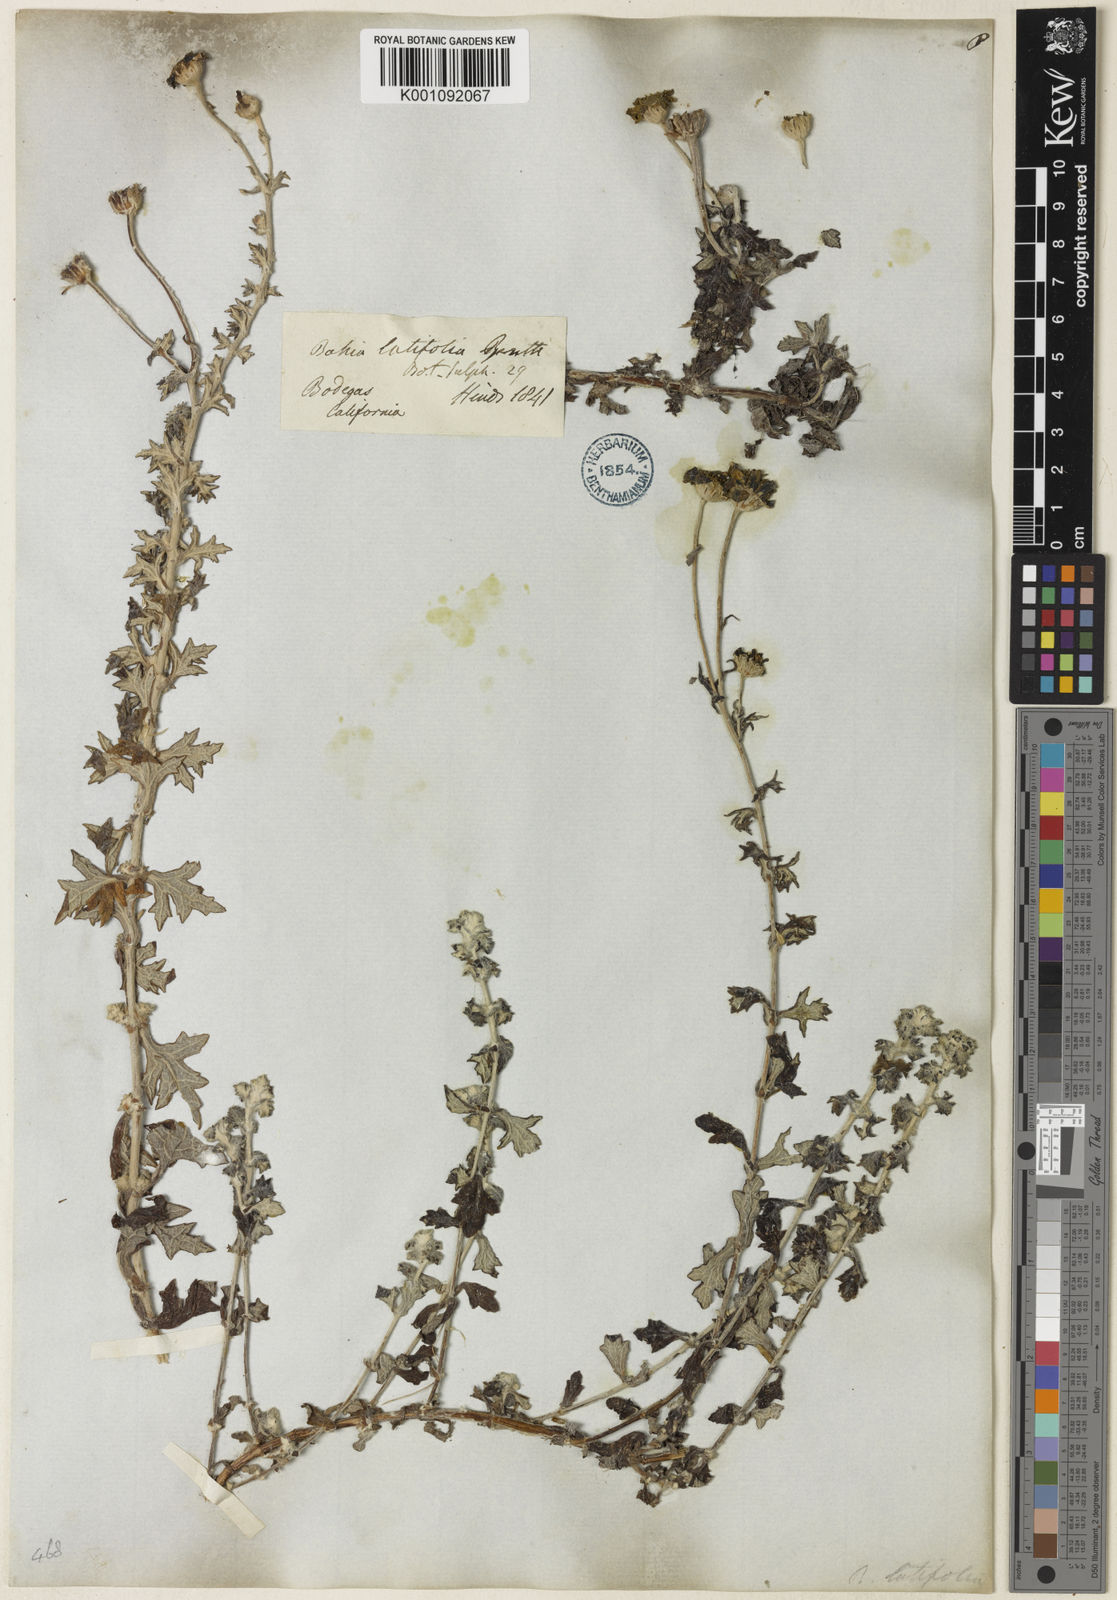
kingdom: Plantae
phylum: Tracheophyta
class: Magnoliopsida
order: Asterales
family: Asteraceae
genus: Eriophyllum
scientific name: Eriophyllum
